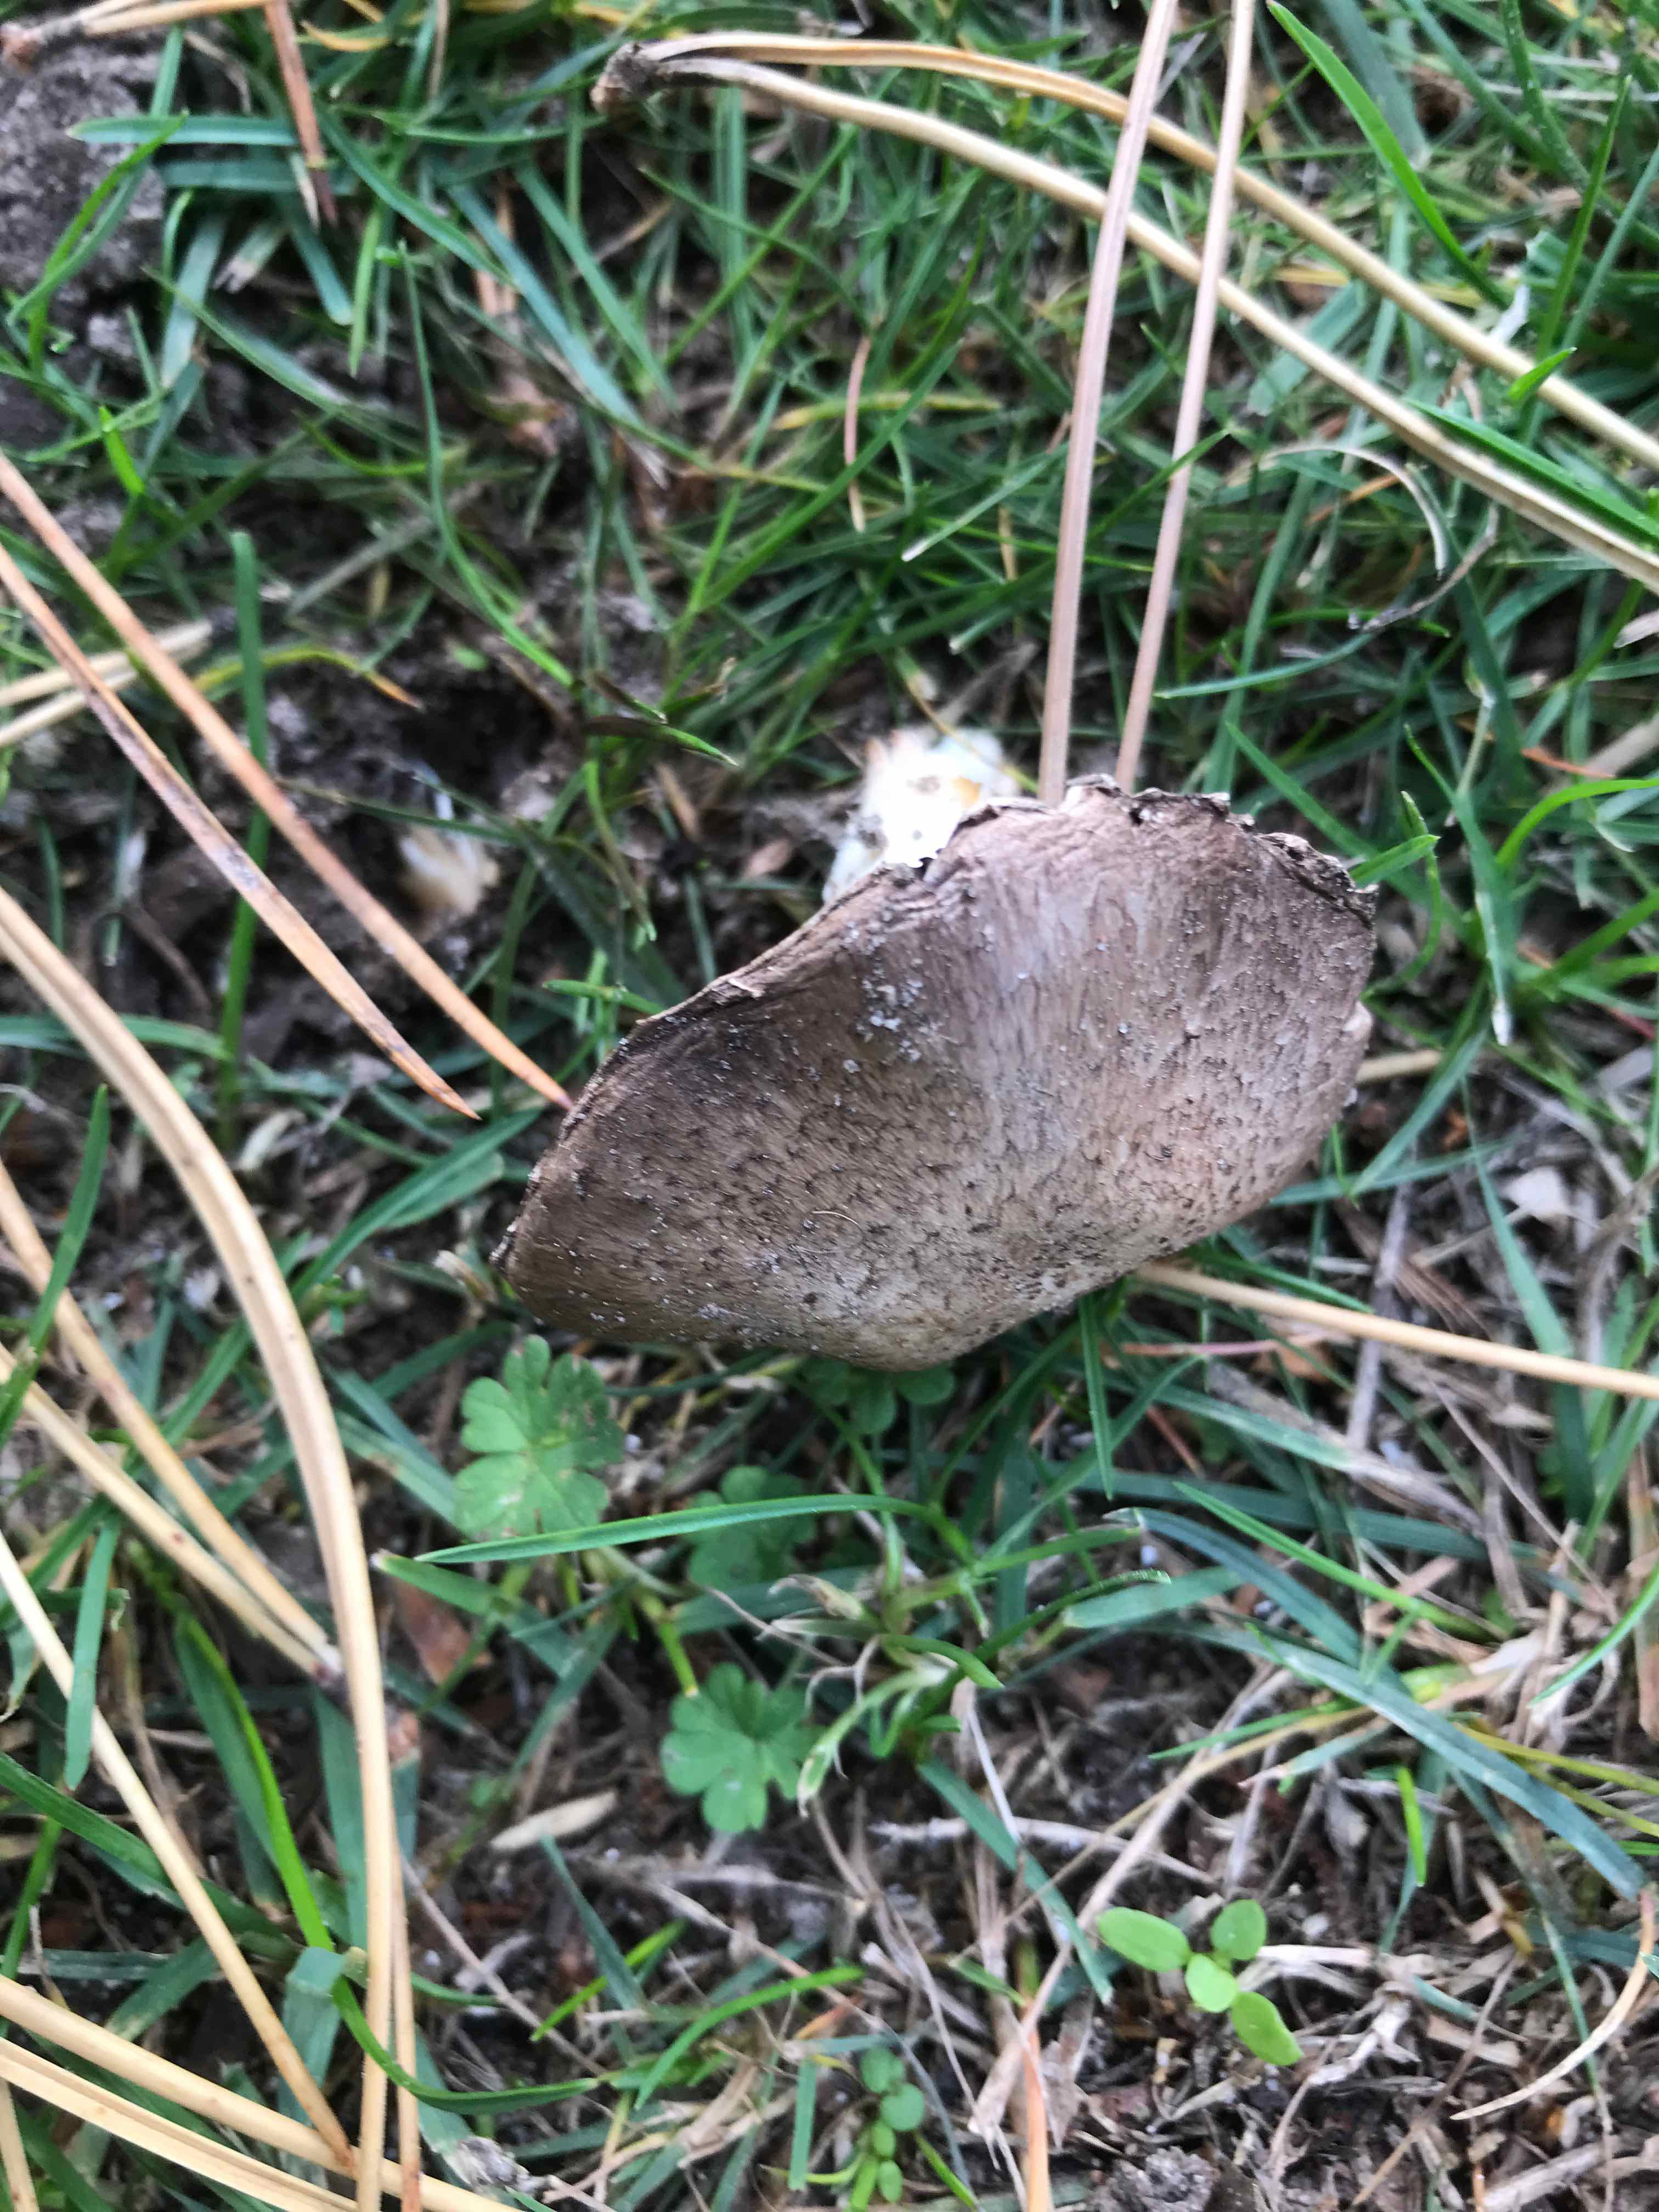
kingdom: Fungi
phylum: Basidiomycota
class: Agaricomycetes
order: Agaricales
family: Agaricaceae
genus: Agaricus
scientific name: Agaricus
